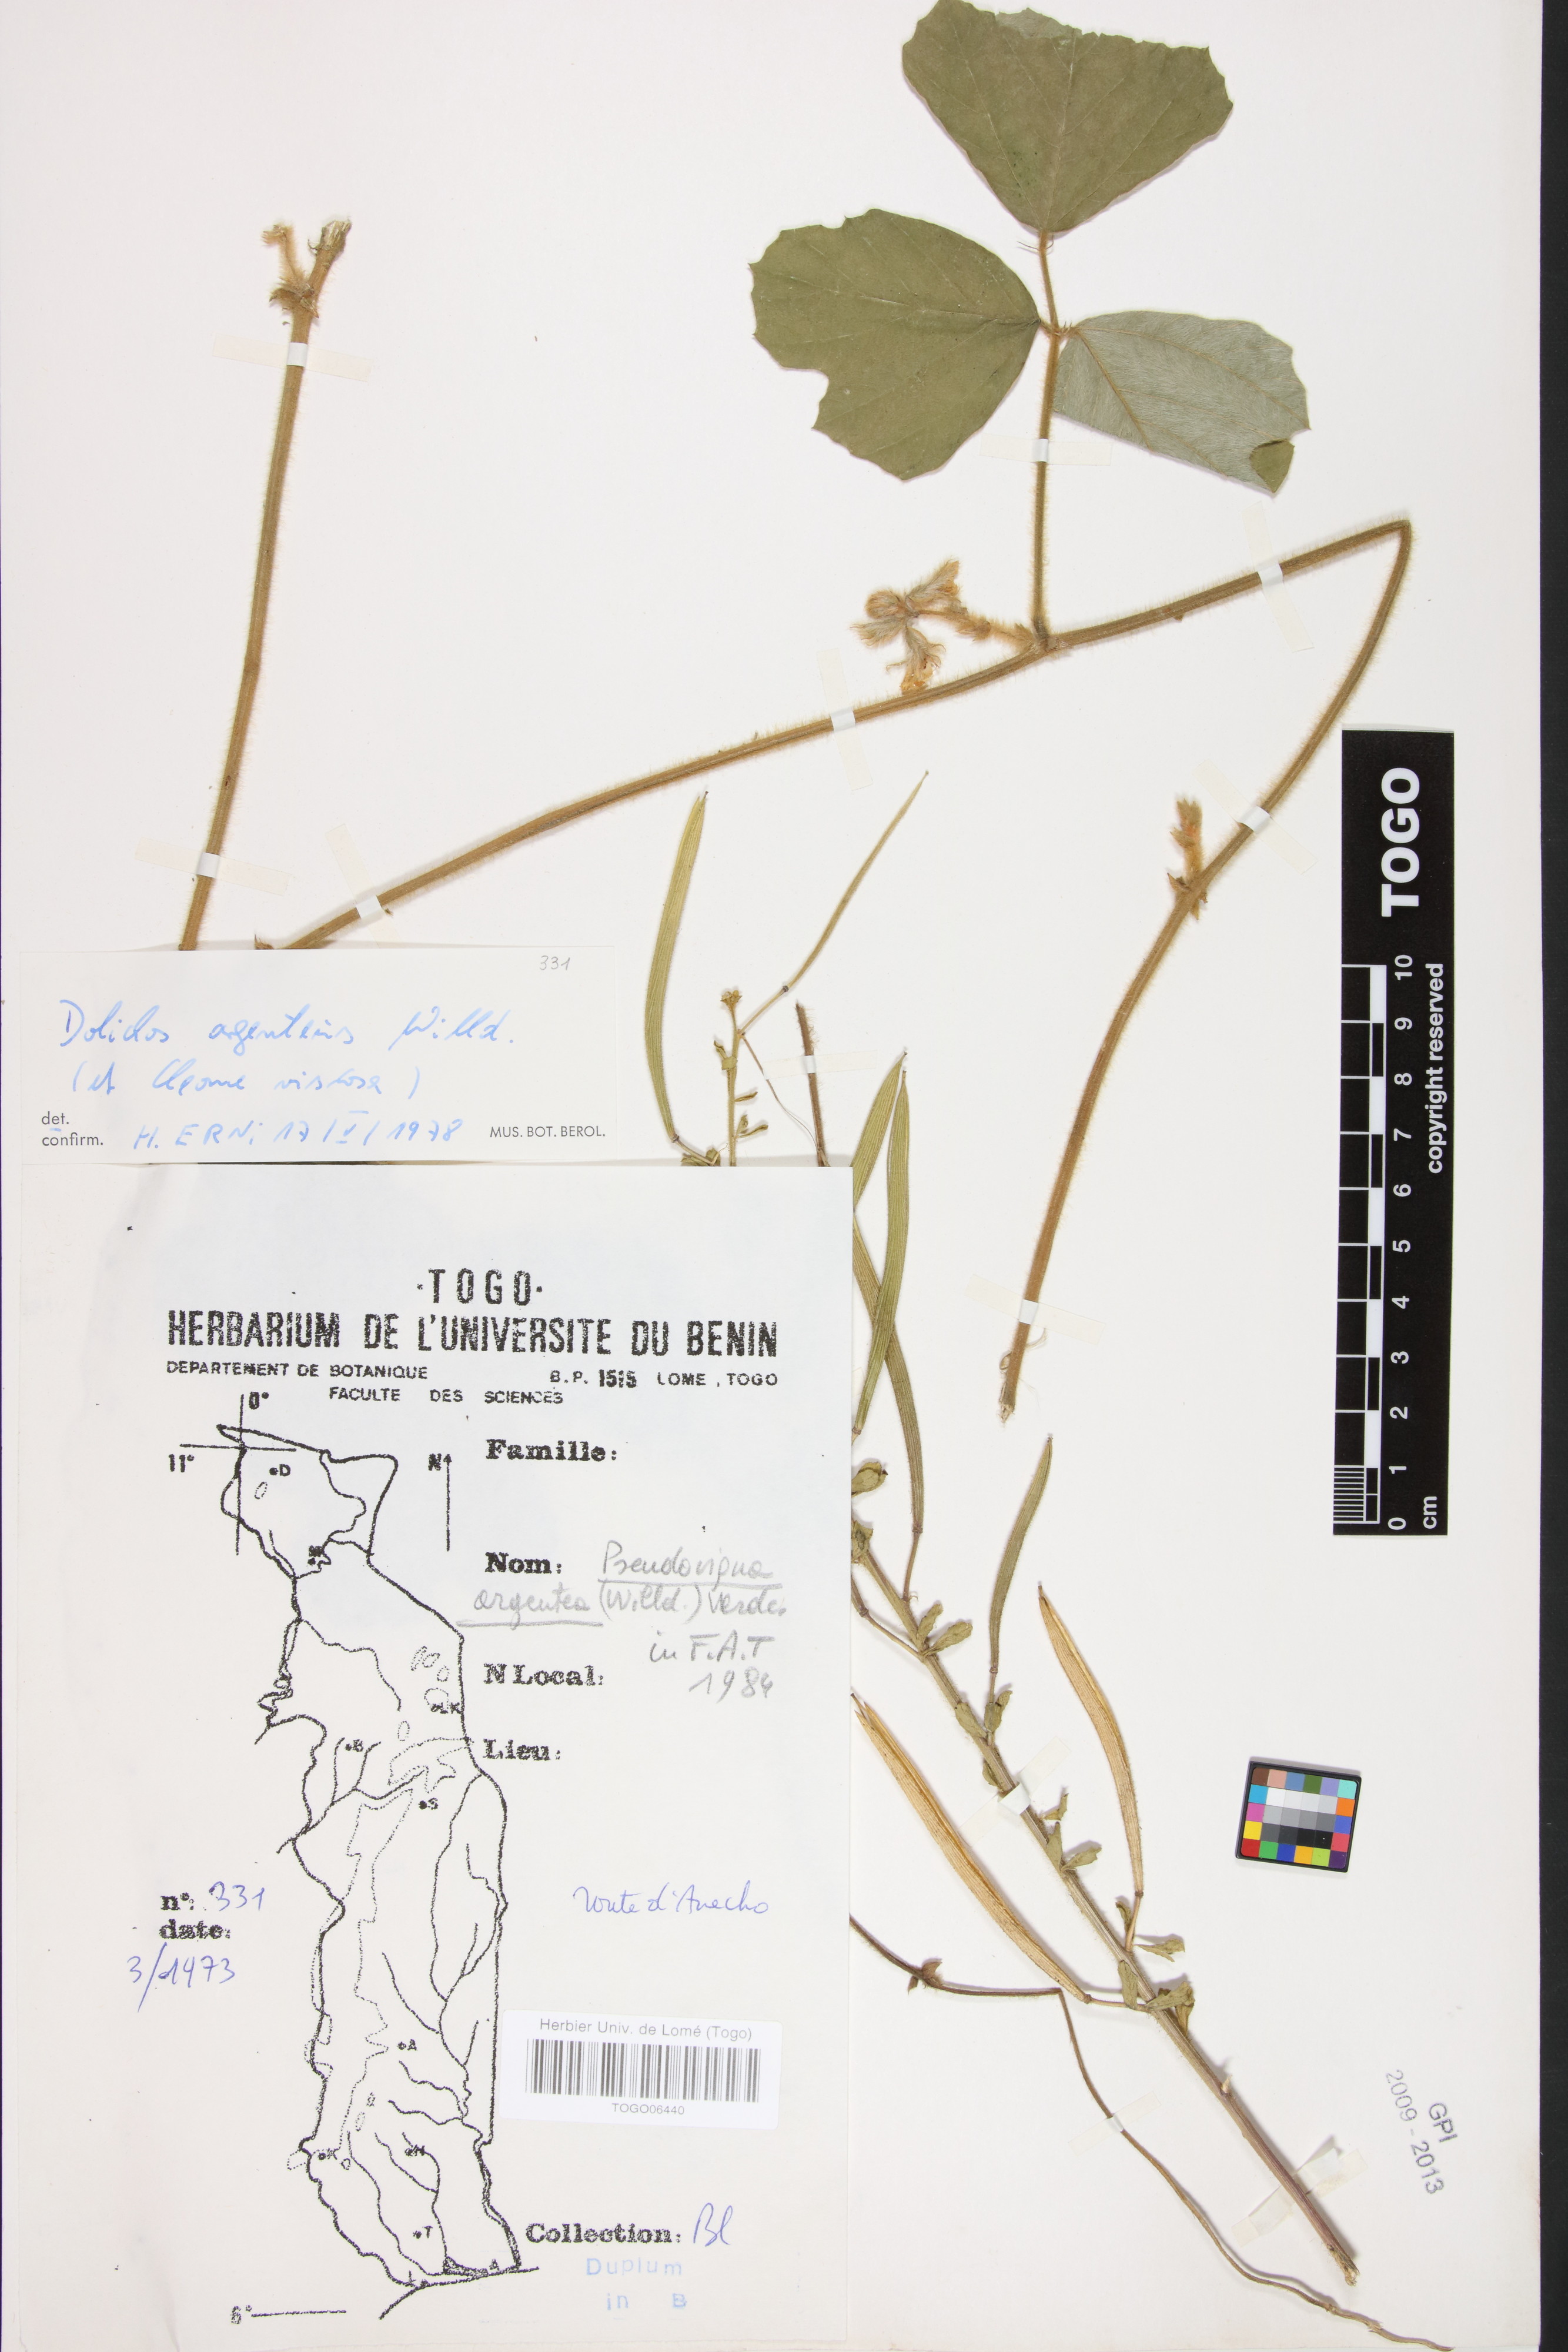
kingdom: Plantae
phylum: Tracheophyta
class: Magnoliopsida
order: Fabales
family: Fabaceae
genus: Pseudovigna
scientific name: Pseudovigna argentea
